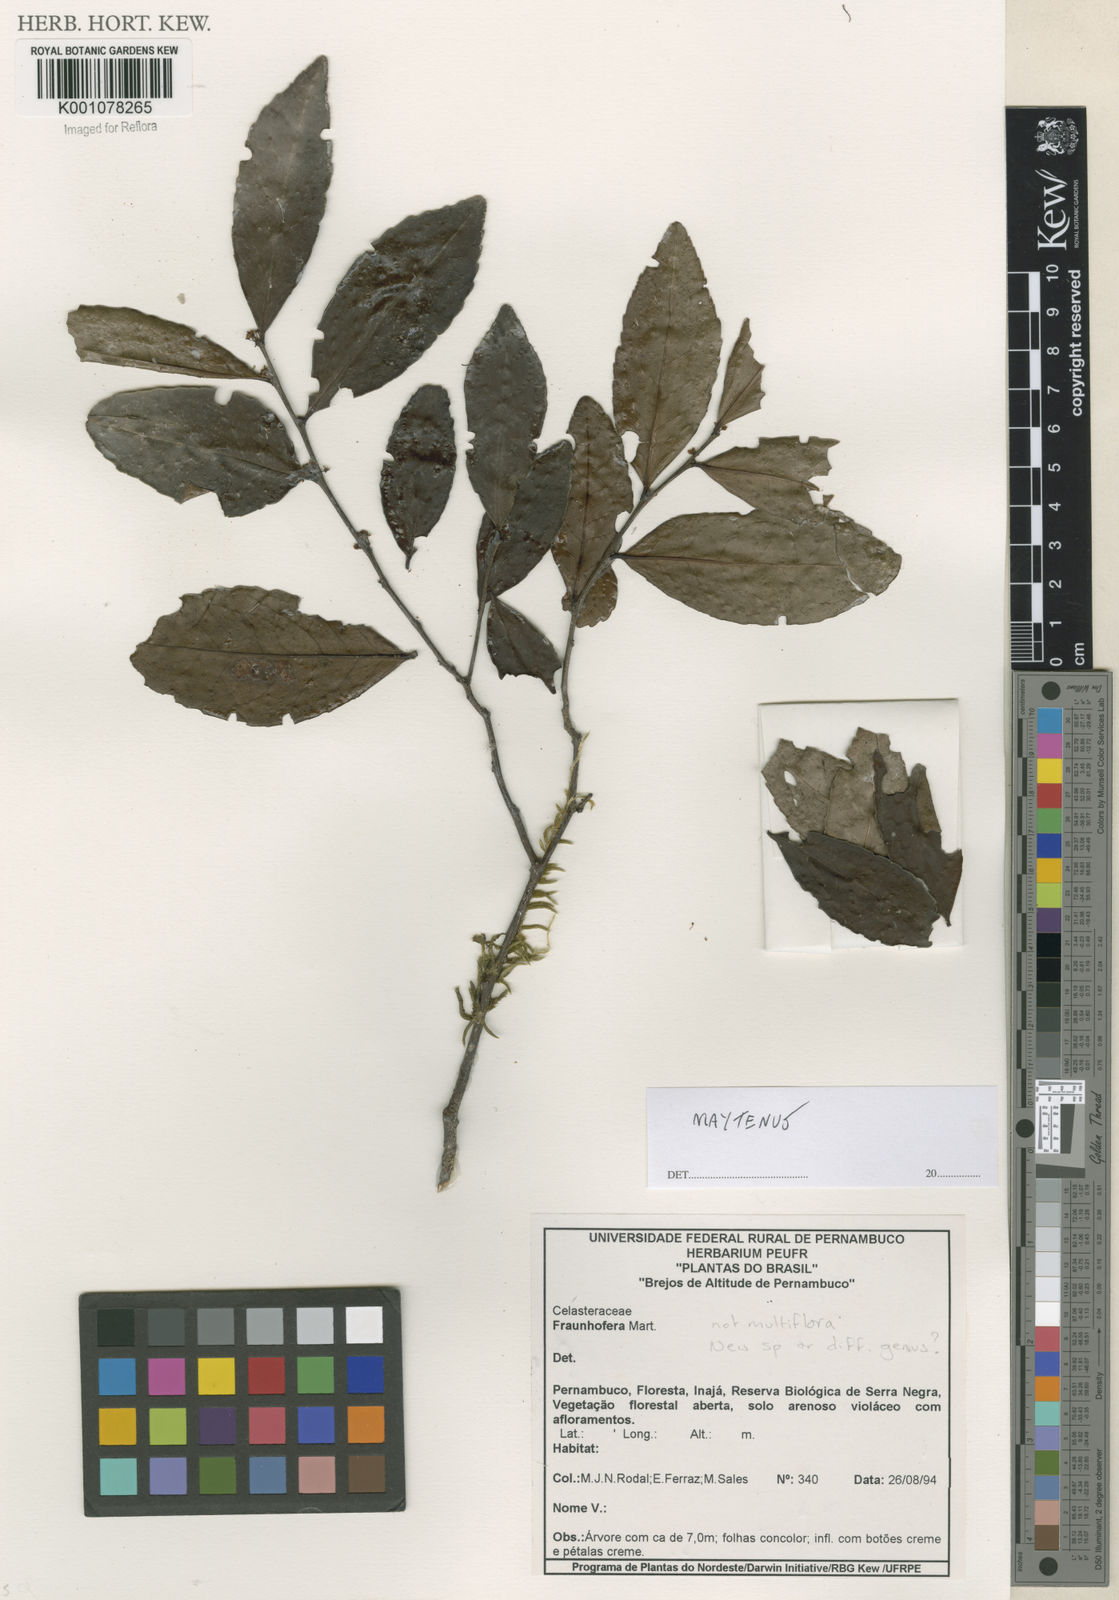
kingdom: Plantae
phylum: Tracheophyta
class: Magnoliopsida
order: Celastrales
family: Celastraceae
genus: Maytenus
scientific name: Maytenus
